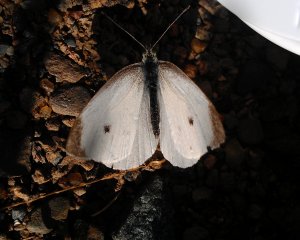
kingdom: Animalia
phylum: Arthropoda
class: Insecta
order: Lepidoptera
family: Pieridae
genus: Pieris
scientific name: Pieris rapae
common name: Cabbage White
